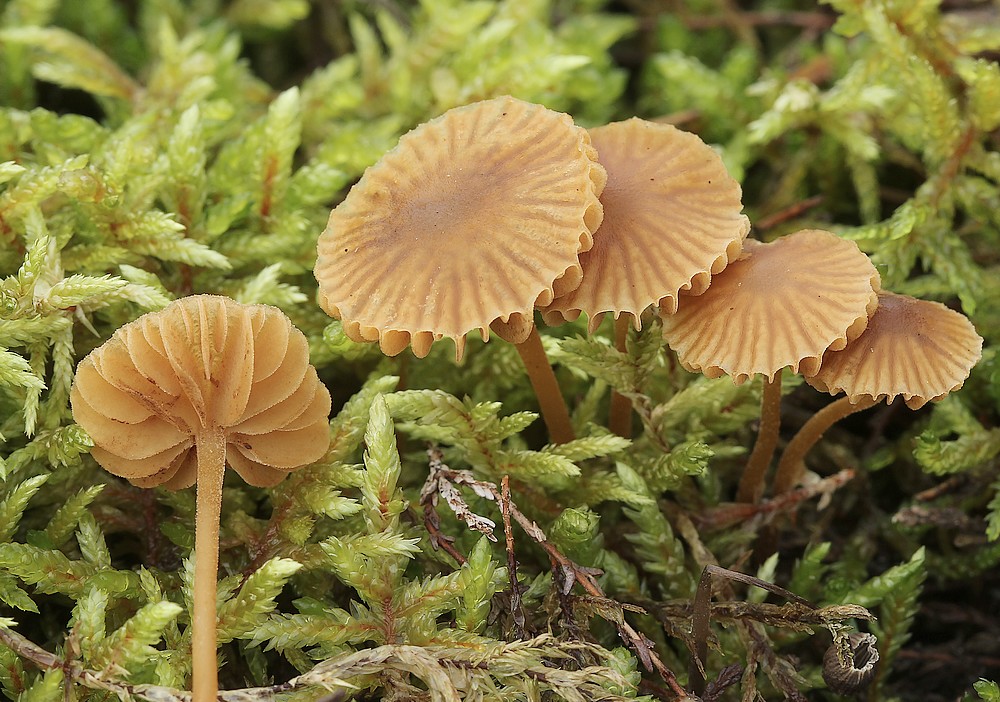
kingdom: Fungi
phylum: Basidiomycota
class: Agaricomycetes
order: Agaricales
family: Hymenogastraceae
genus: Galerina
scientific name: Galerina
